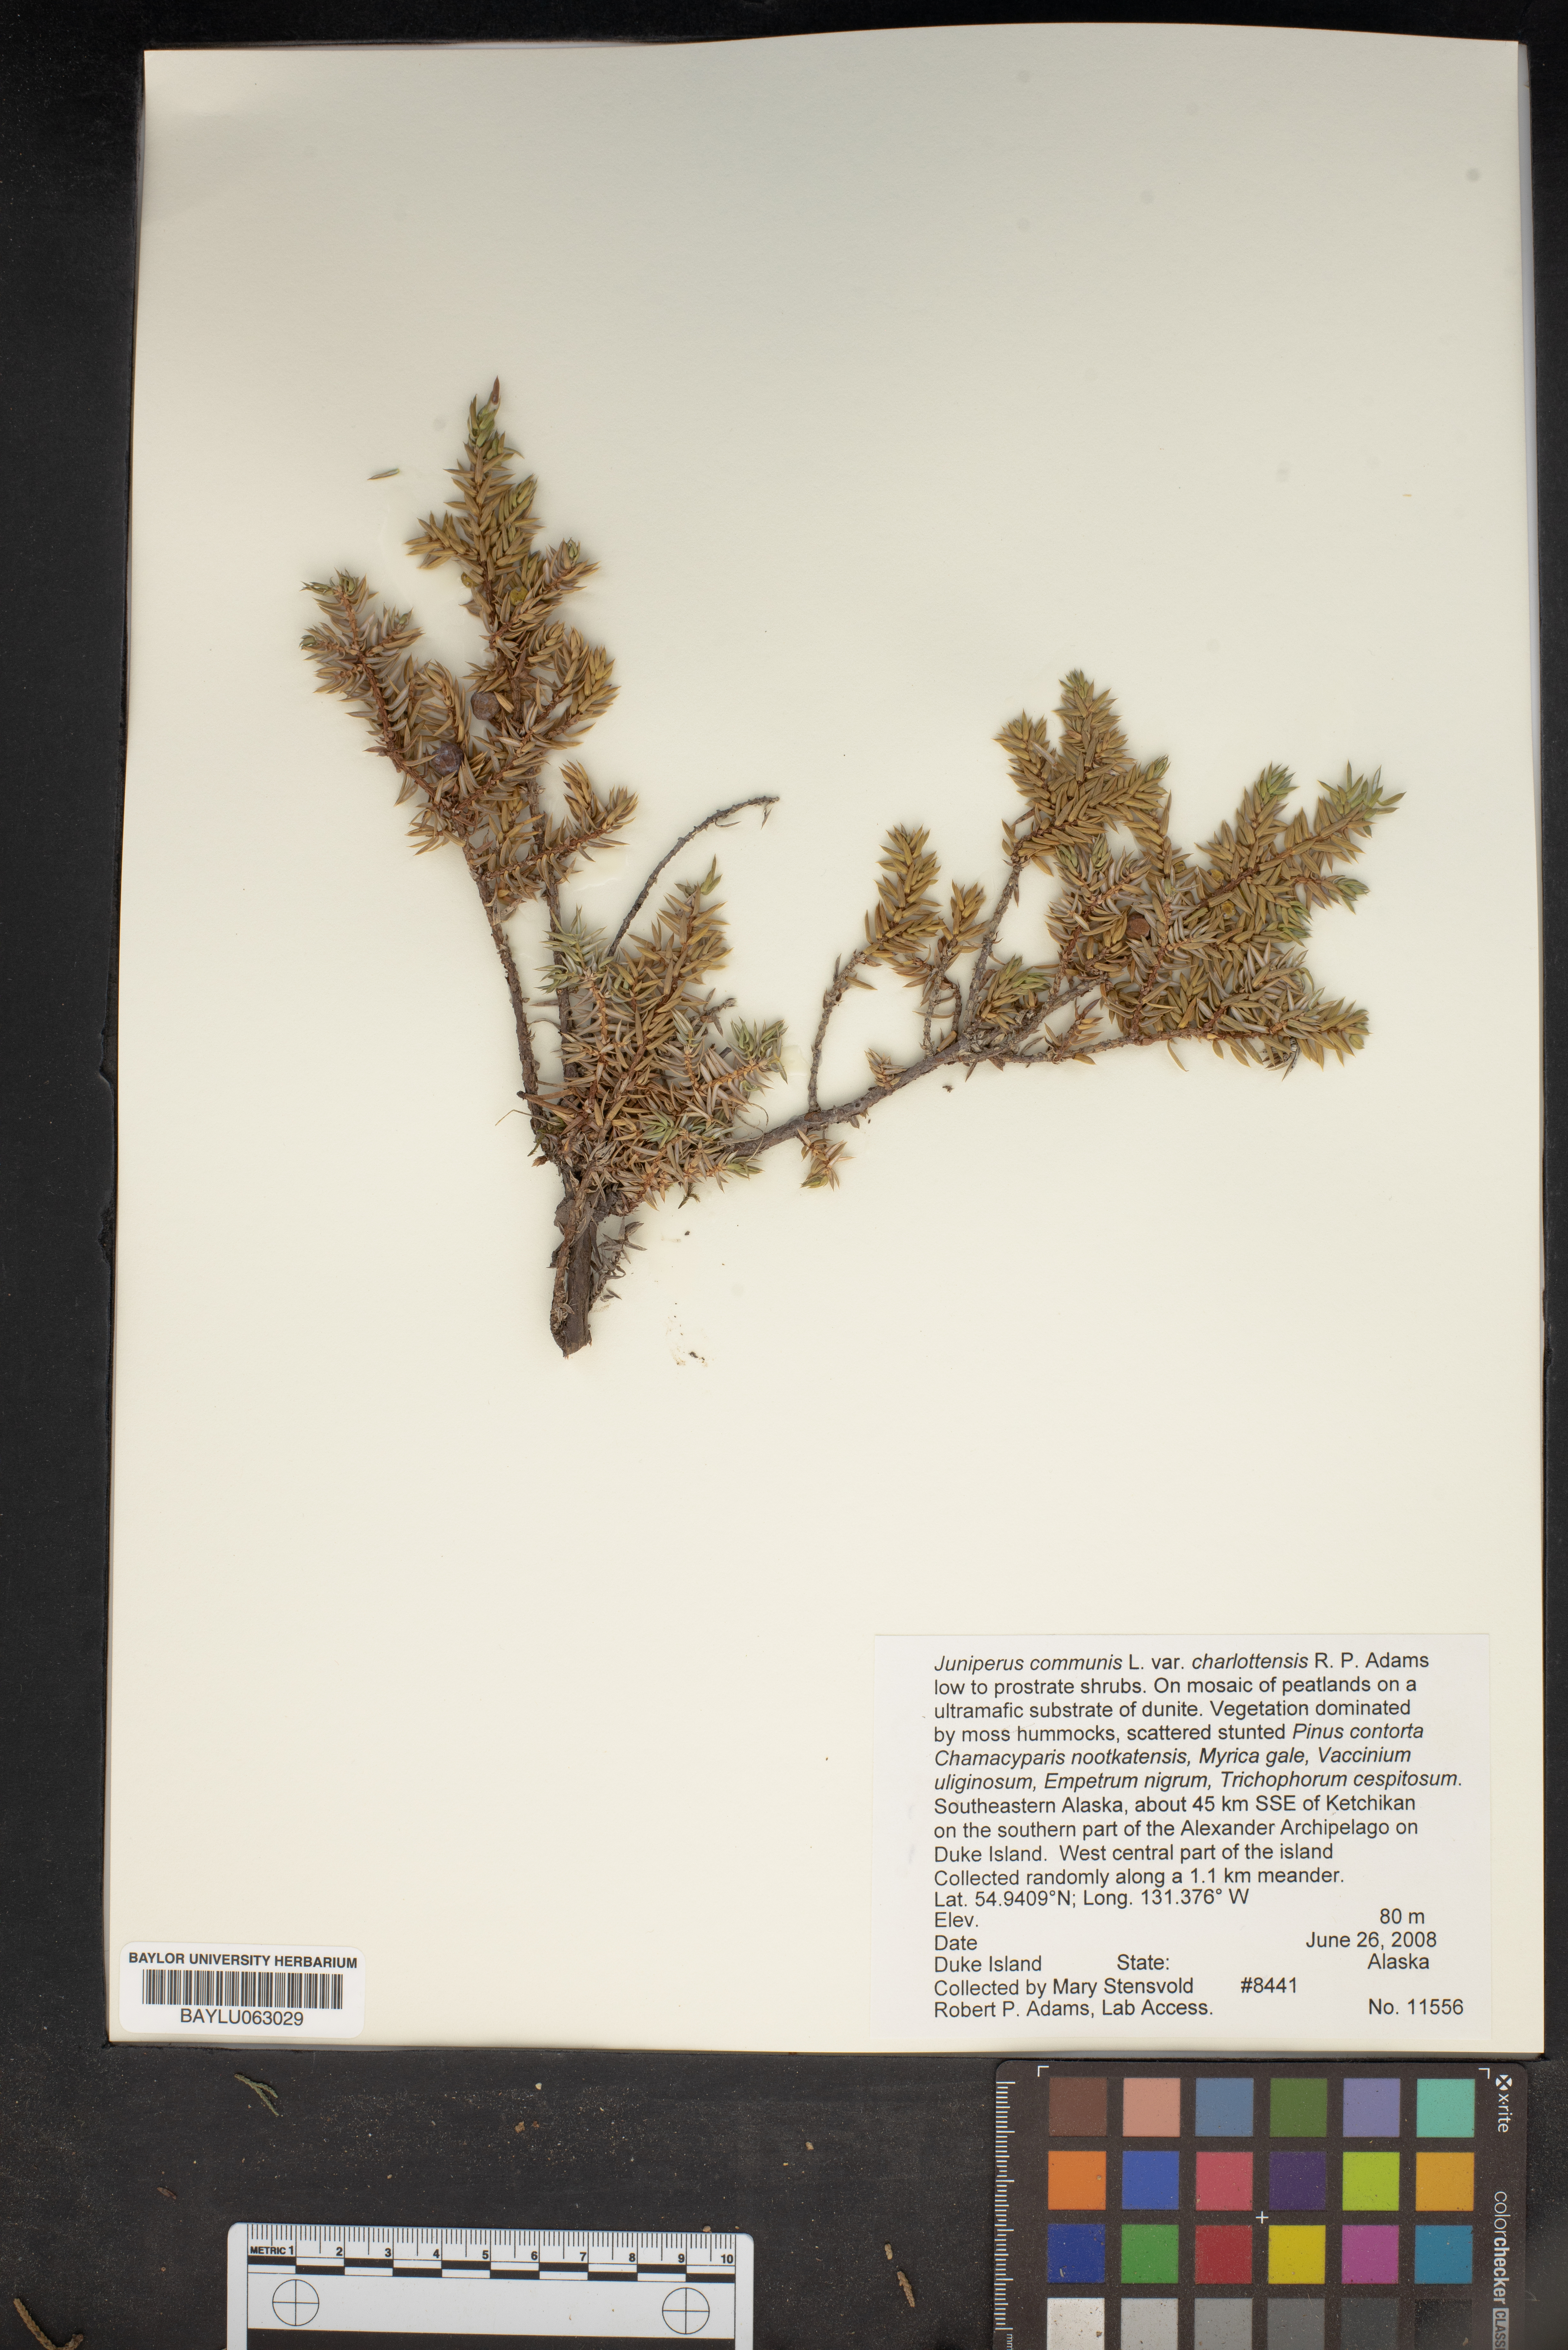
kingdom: Plantae
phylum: Tracheophyta
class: Pinopsida
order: Pinales
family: Cupressaceae
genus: Juniperus
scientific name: Juniperus communis
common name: Common juniper
